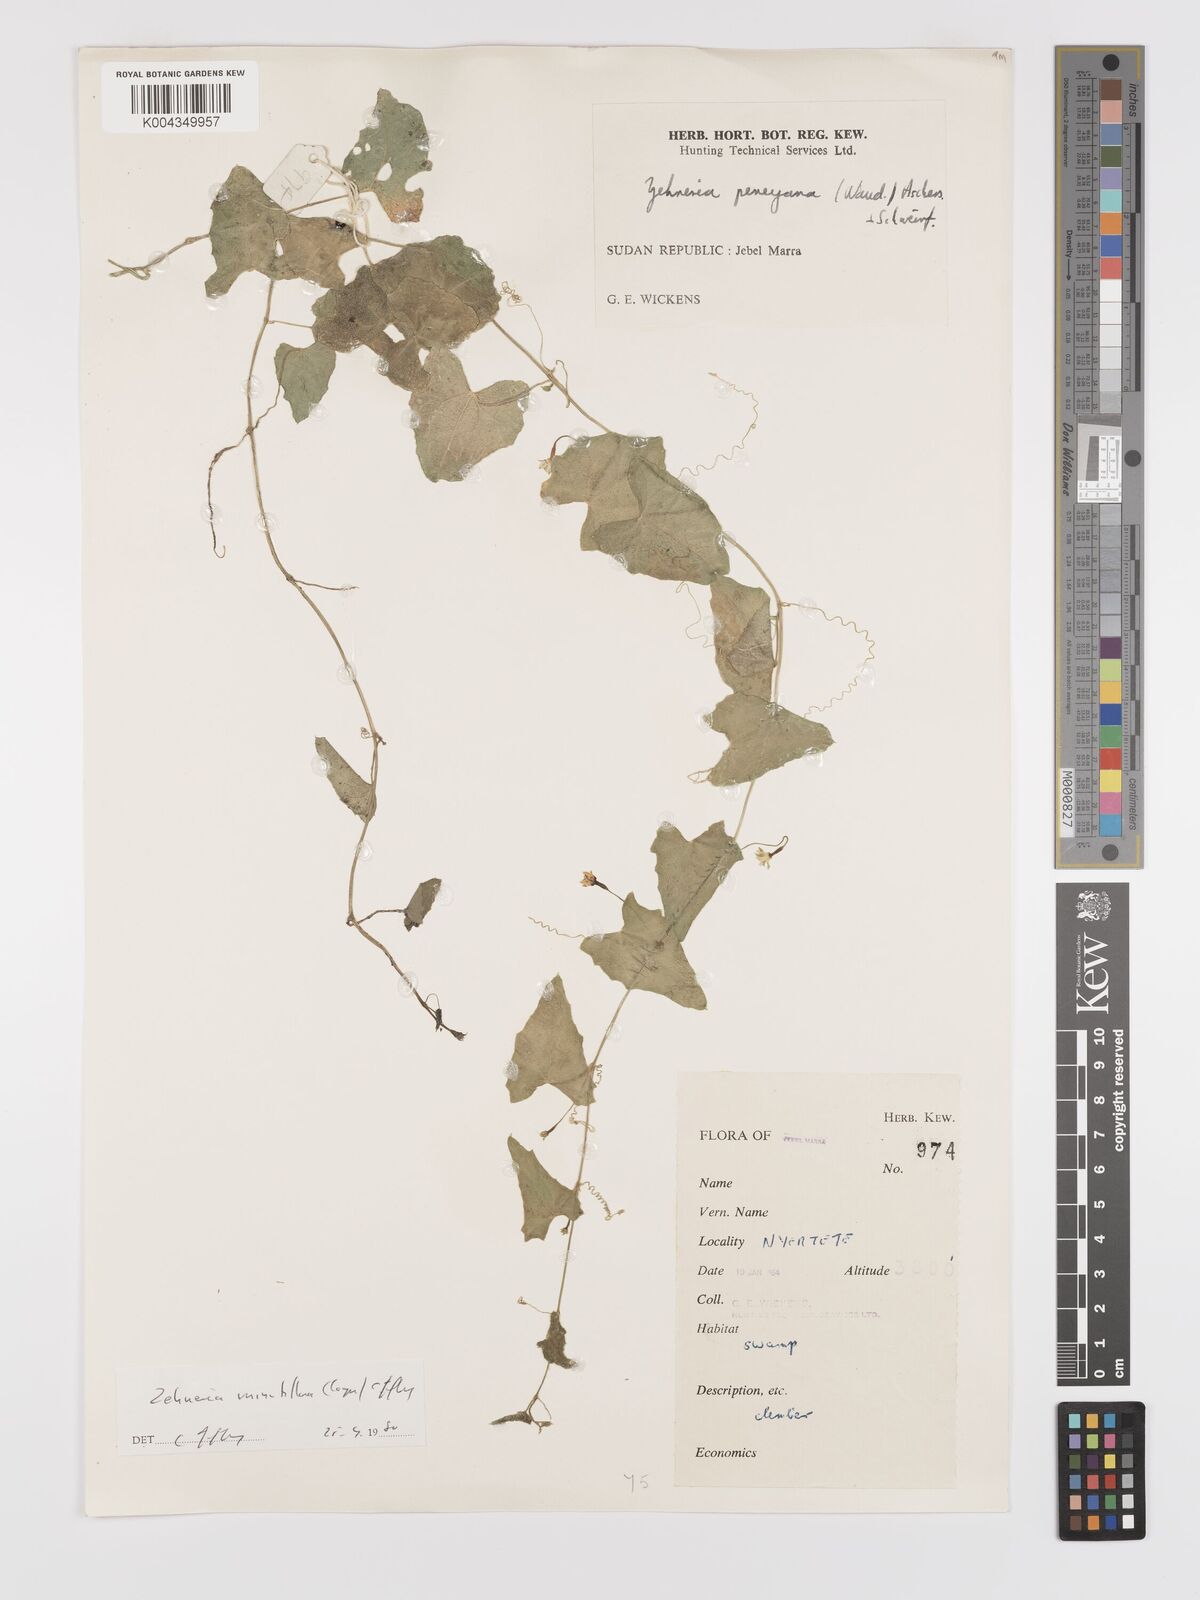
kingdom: Plantae
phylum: Tracheophyta
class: Magnoliopsida
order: Cucurbitales
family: Cucurbitaceae
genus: Zehneria
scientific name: Zehneria minutiflora
